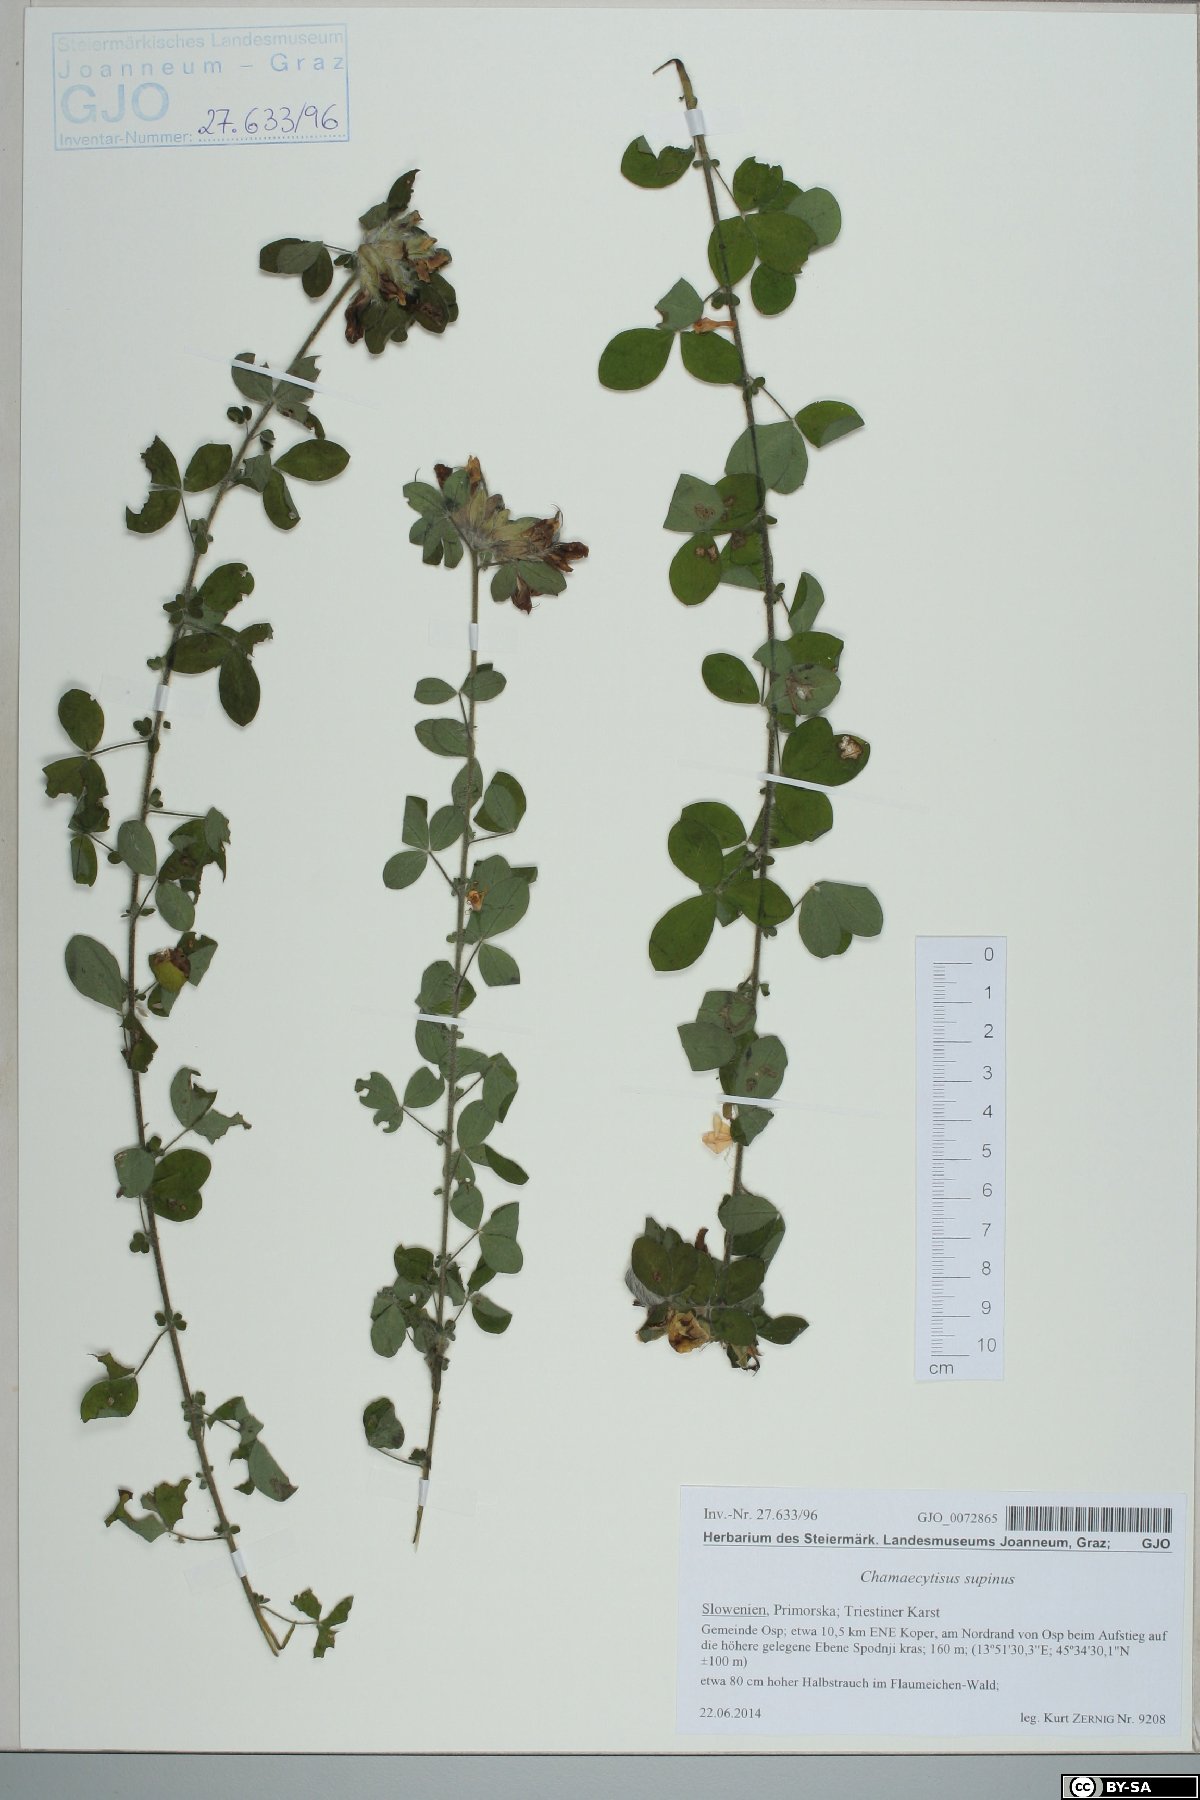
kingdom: Plantae
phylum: Tracheophyta
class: Magnoliopsida
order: Fabales
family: Fabaceae
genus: Chamaecytisus
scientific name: Chamaecytisus supinus
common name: Clustered broom
